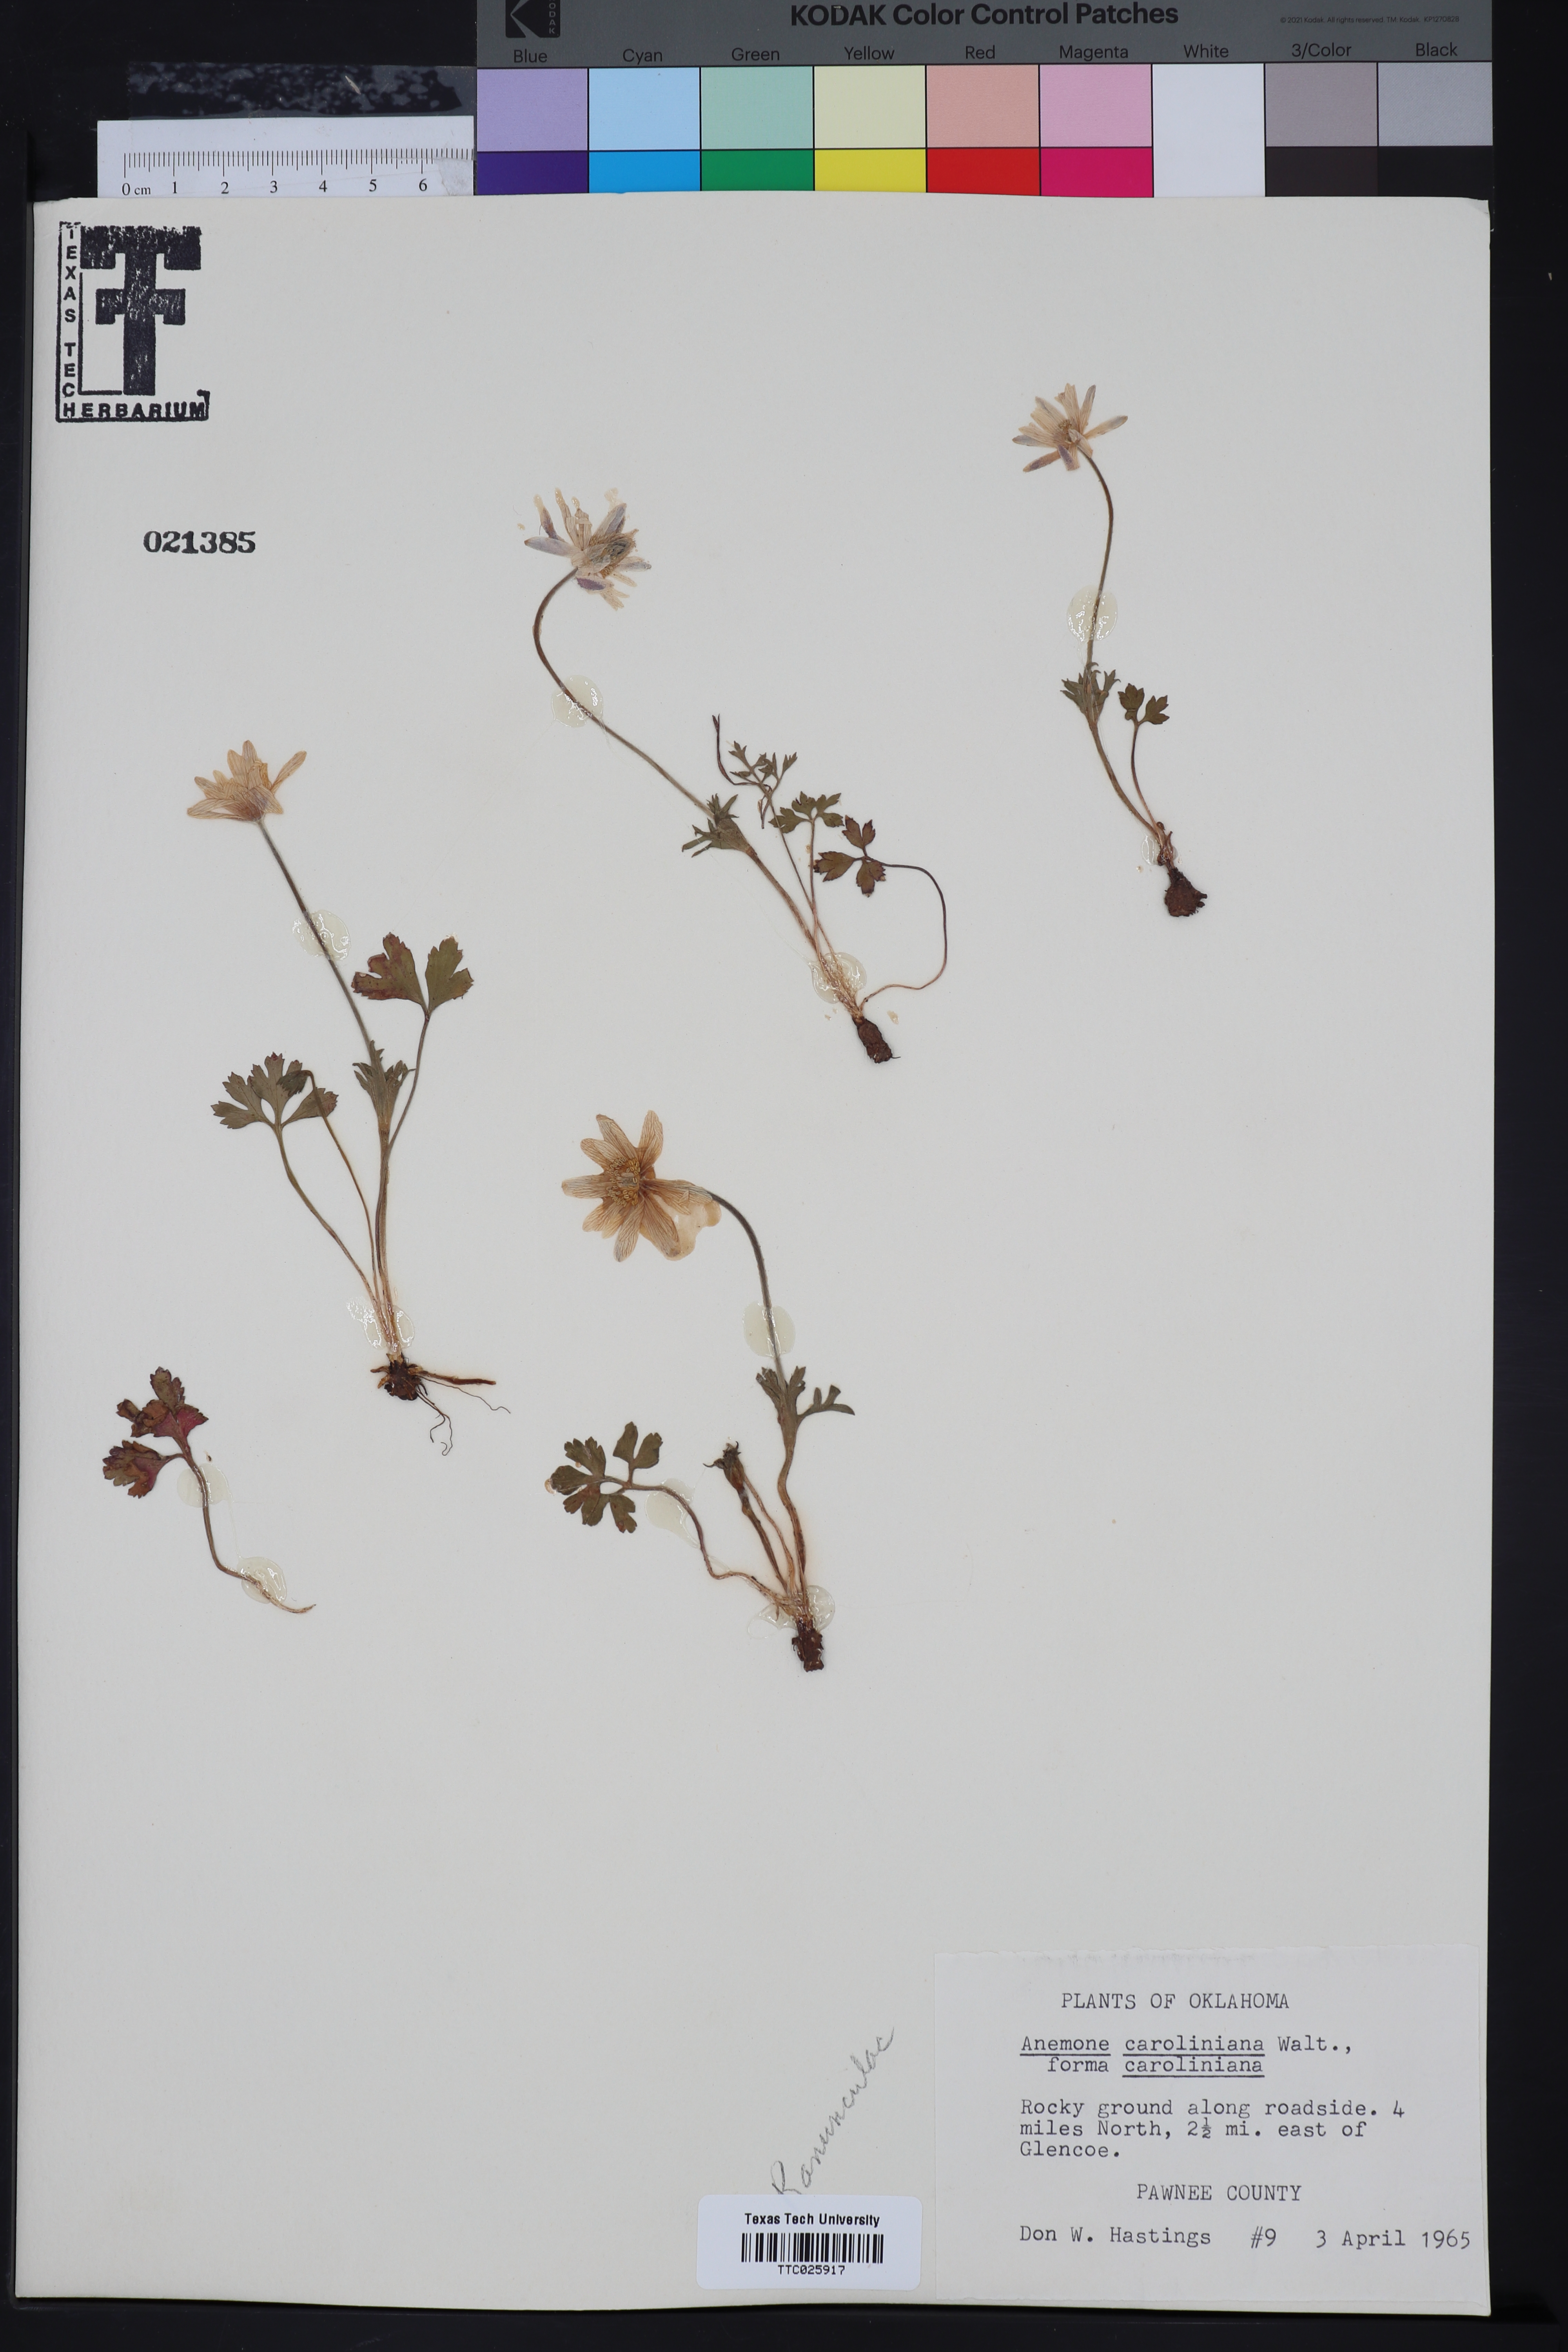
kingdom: Plantae
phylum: Tracheophyta
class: Magnoliopsida
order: Ranunculales
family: Ranunculaceae
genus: Anemone
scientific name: Anemone caroliniana
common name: Carolina anemone
